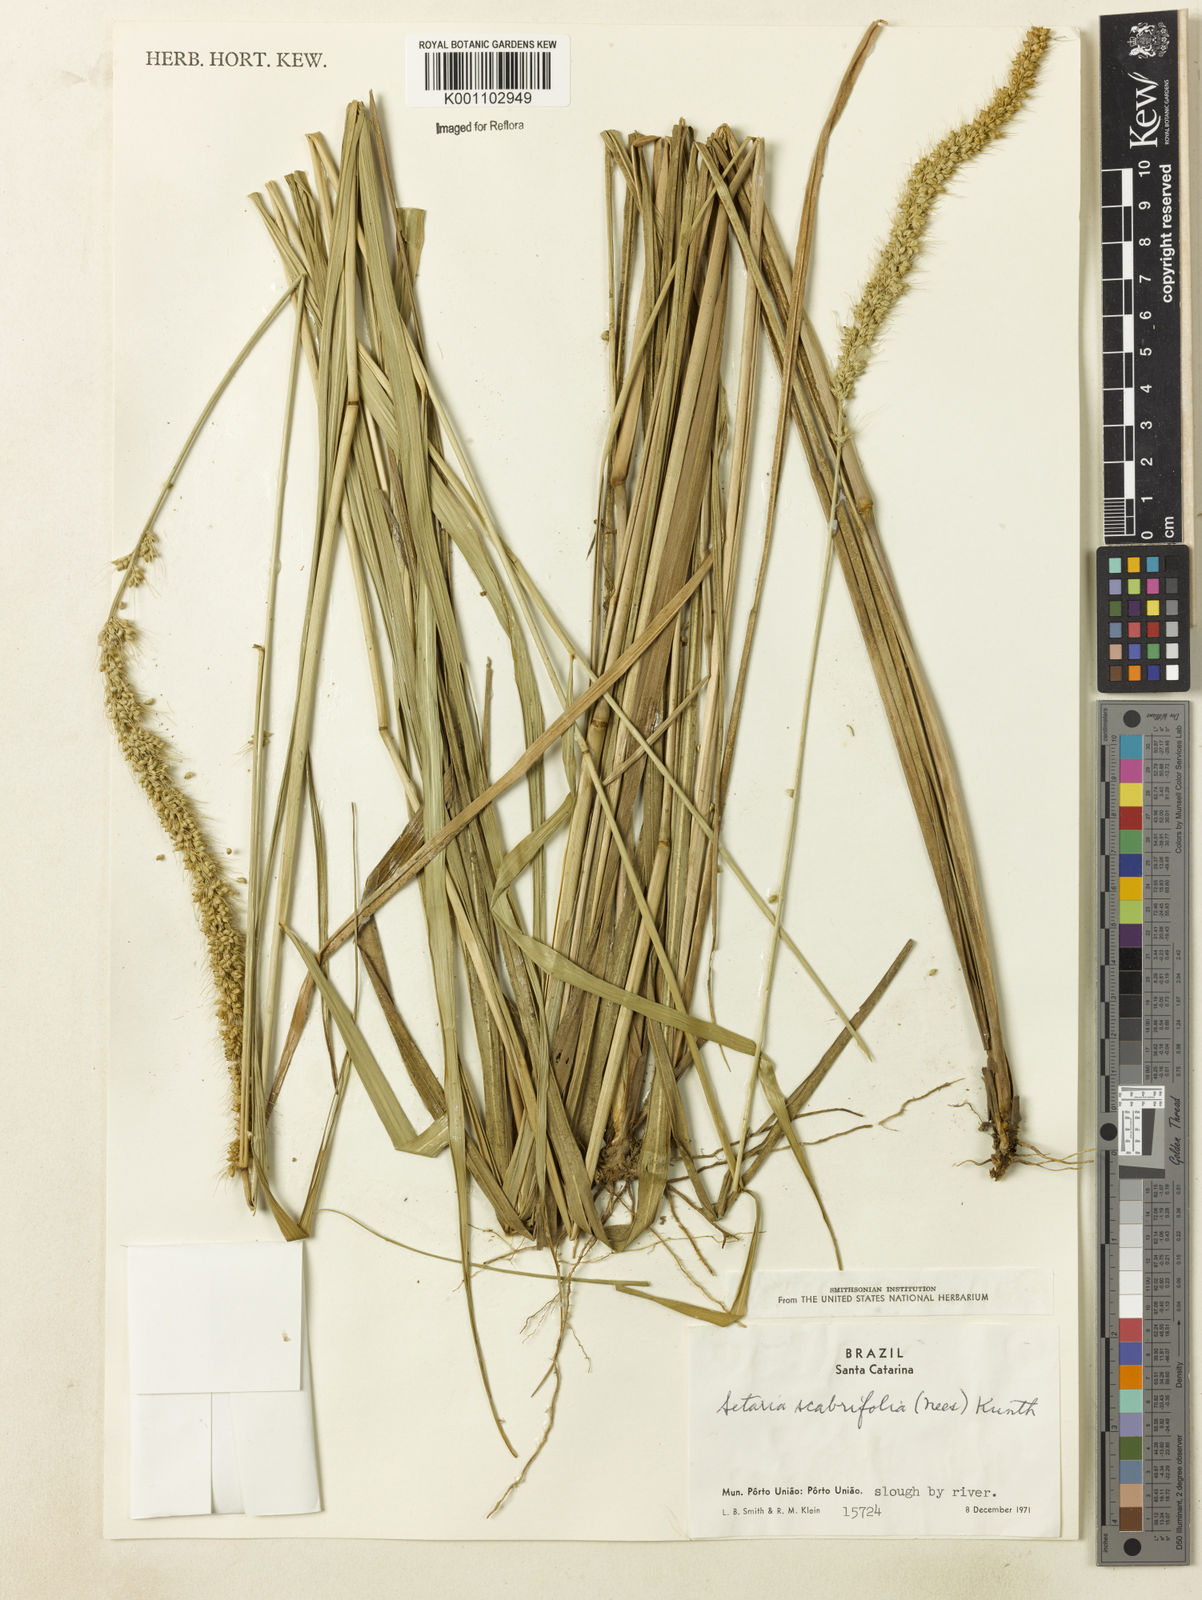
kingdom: Plantae
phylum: Tracheophyta
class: Liliopsida
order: Poales
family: Poaceae
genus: Setaria
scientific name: Setaria globulifera
